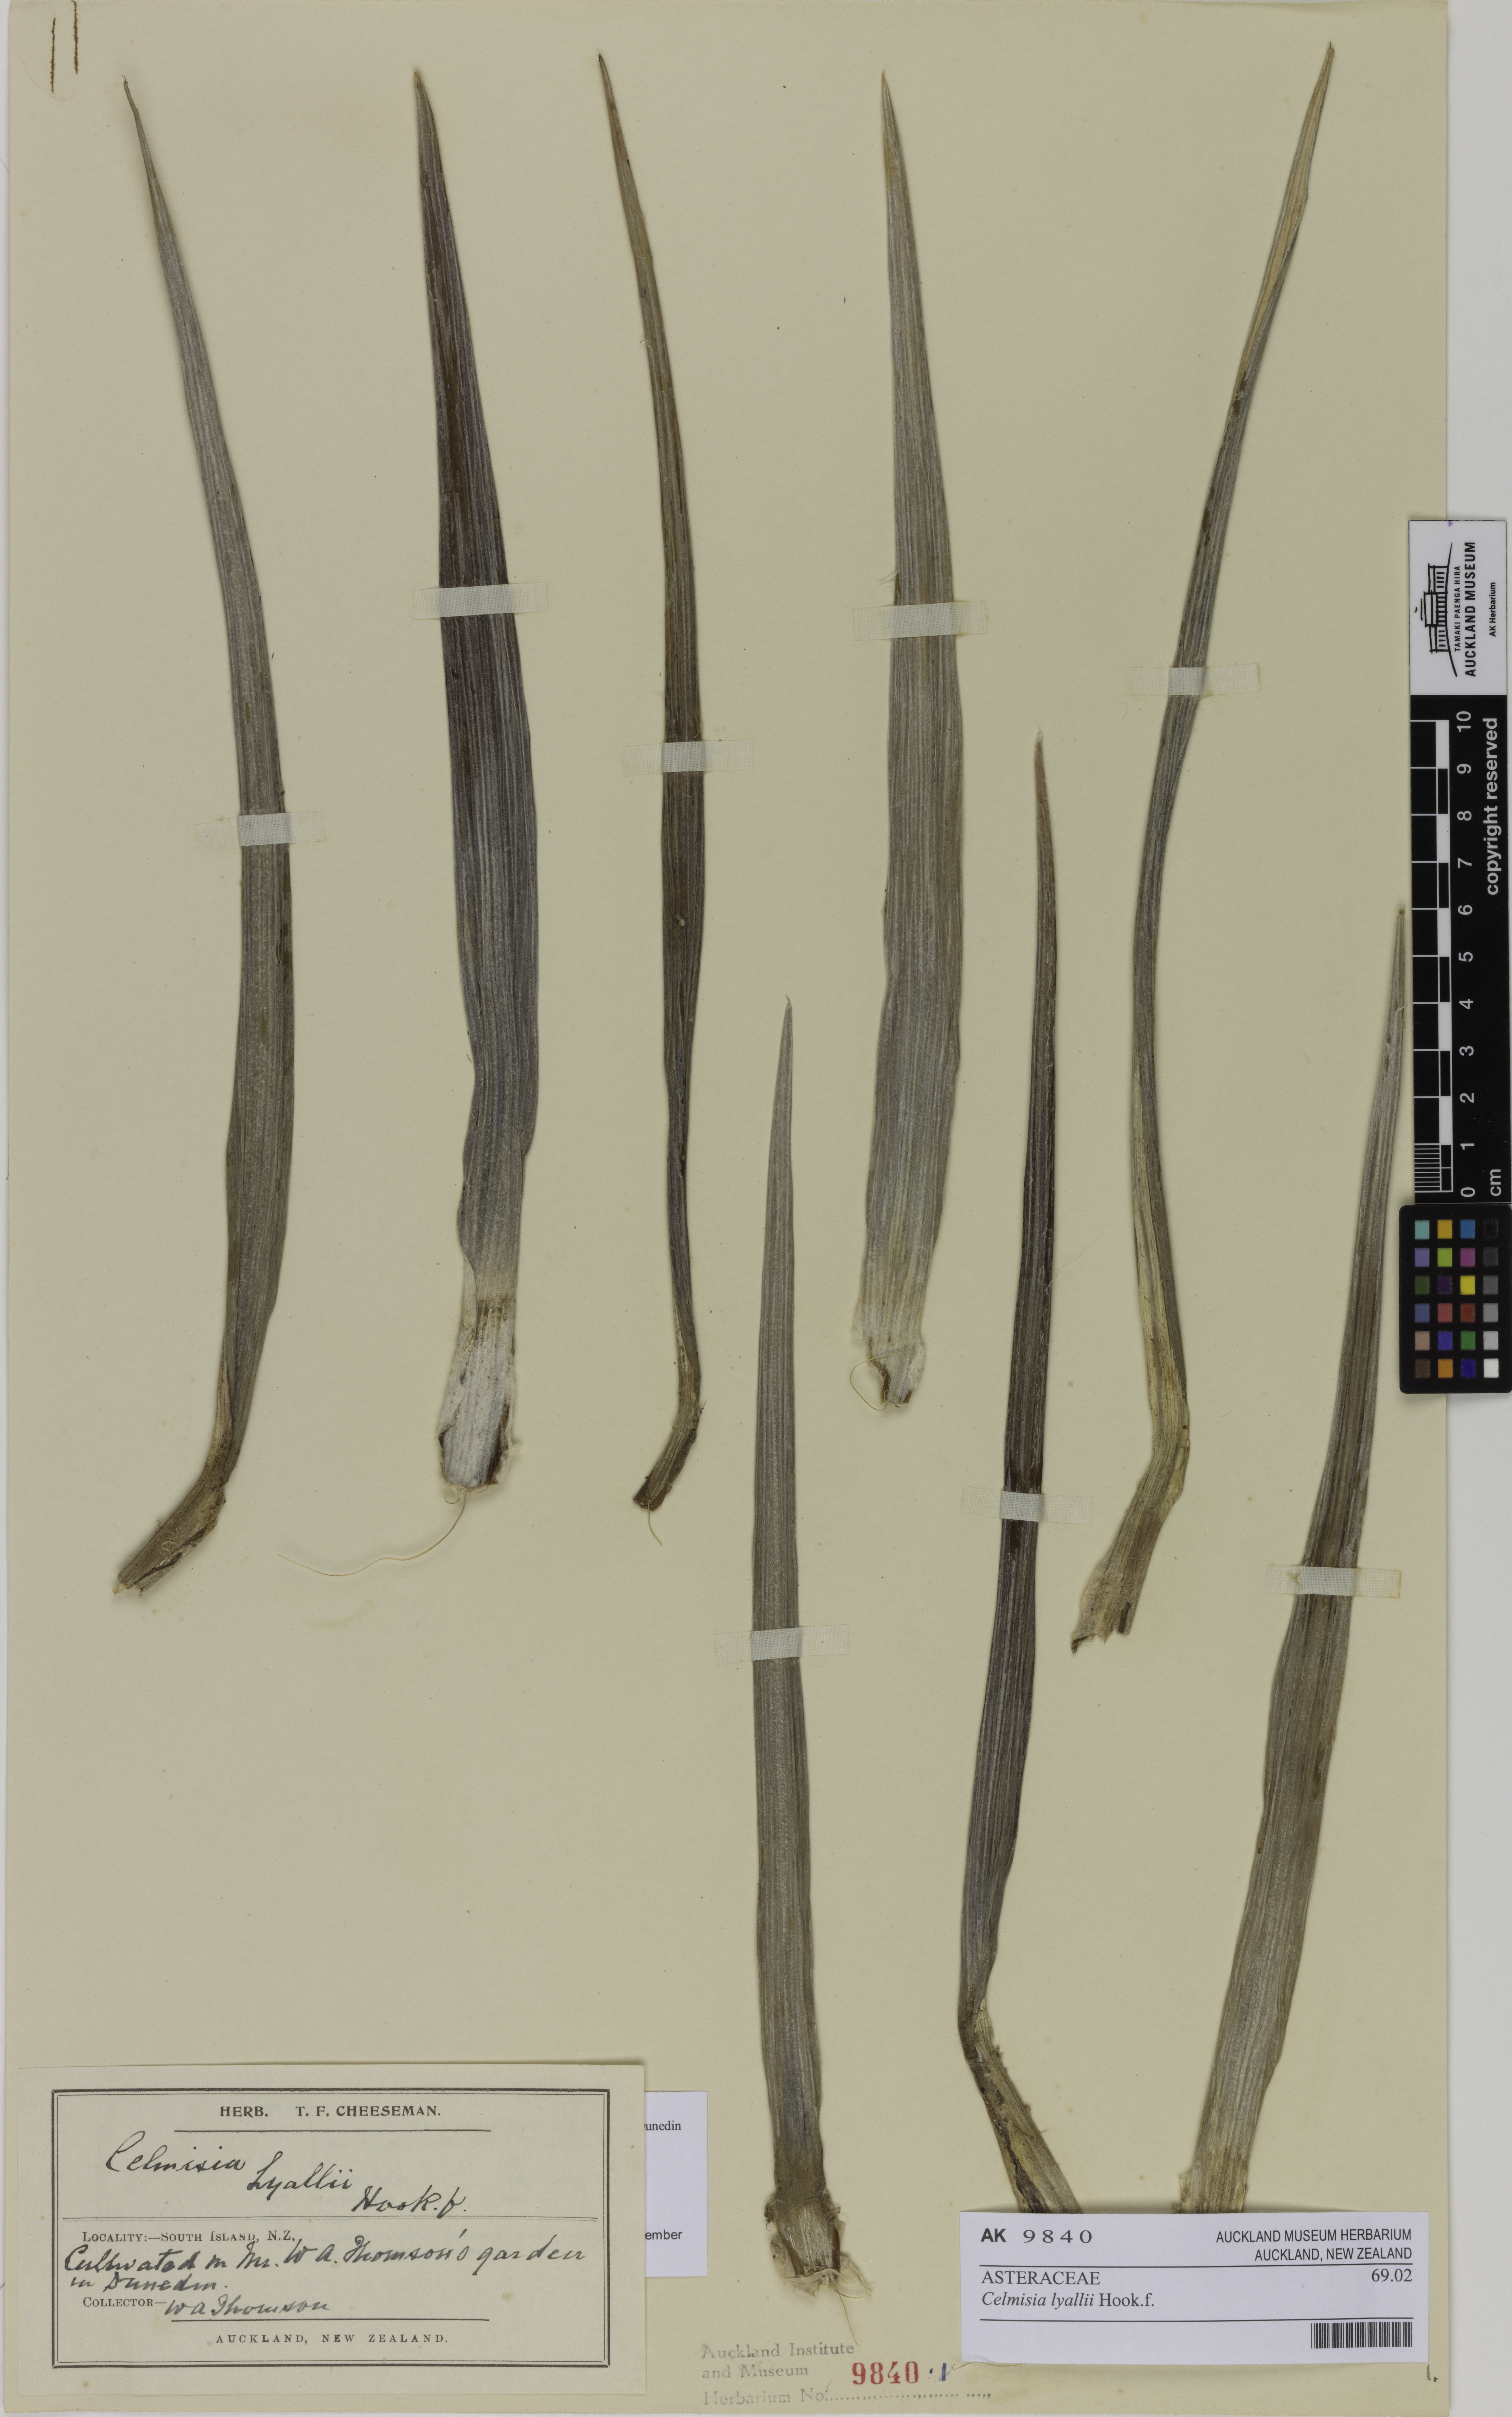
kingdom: Plantae
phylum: Tracheophyta
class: Magnoliopsida
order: Asterales
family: Asteraceae
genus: Celmisia
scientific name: Celmisia lyallii
